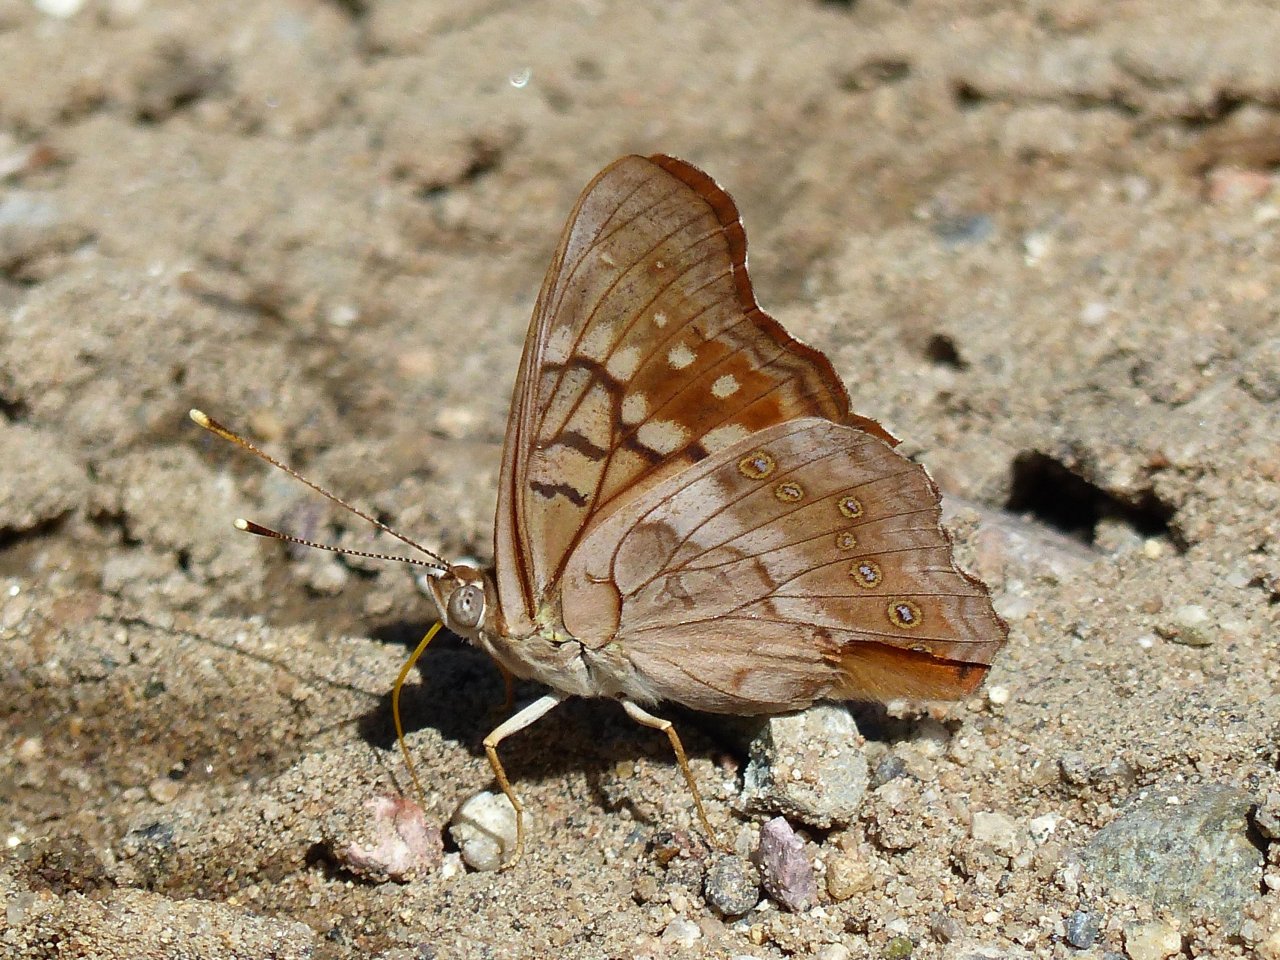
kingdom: Animalia
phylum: Arthropoda
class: Insecta
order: Lepidoptera
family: Nymphalidae
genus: Asterocampa
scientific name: Asterocampa clyton
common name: Tawny Emperor
